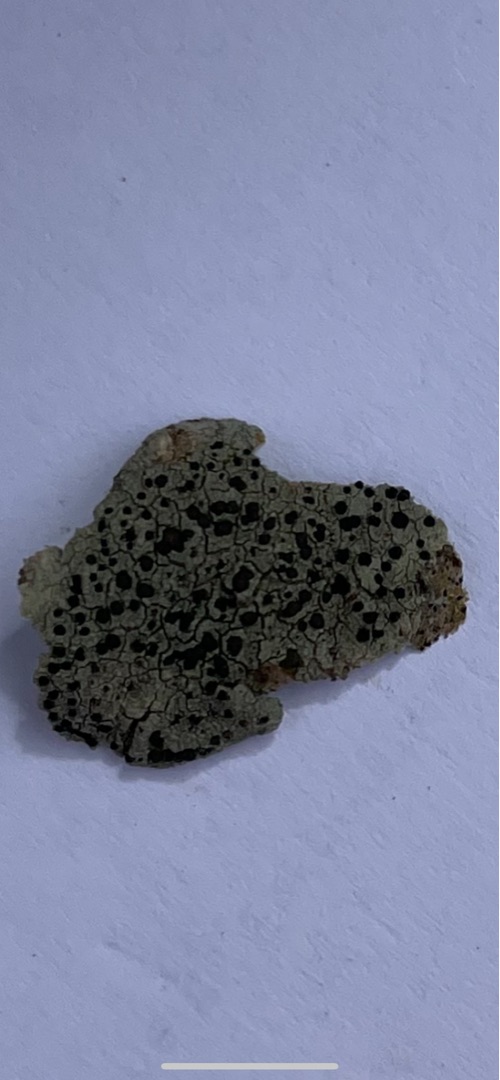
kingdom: Fungi
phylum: Ascomycota
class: Lecanoromycetes
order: Lecanorales
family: Lecanoraceae
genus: Lecidella
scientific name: Lecidella elaeochroma
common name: Grågrøn skivelav
